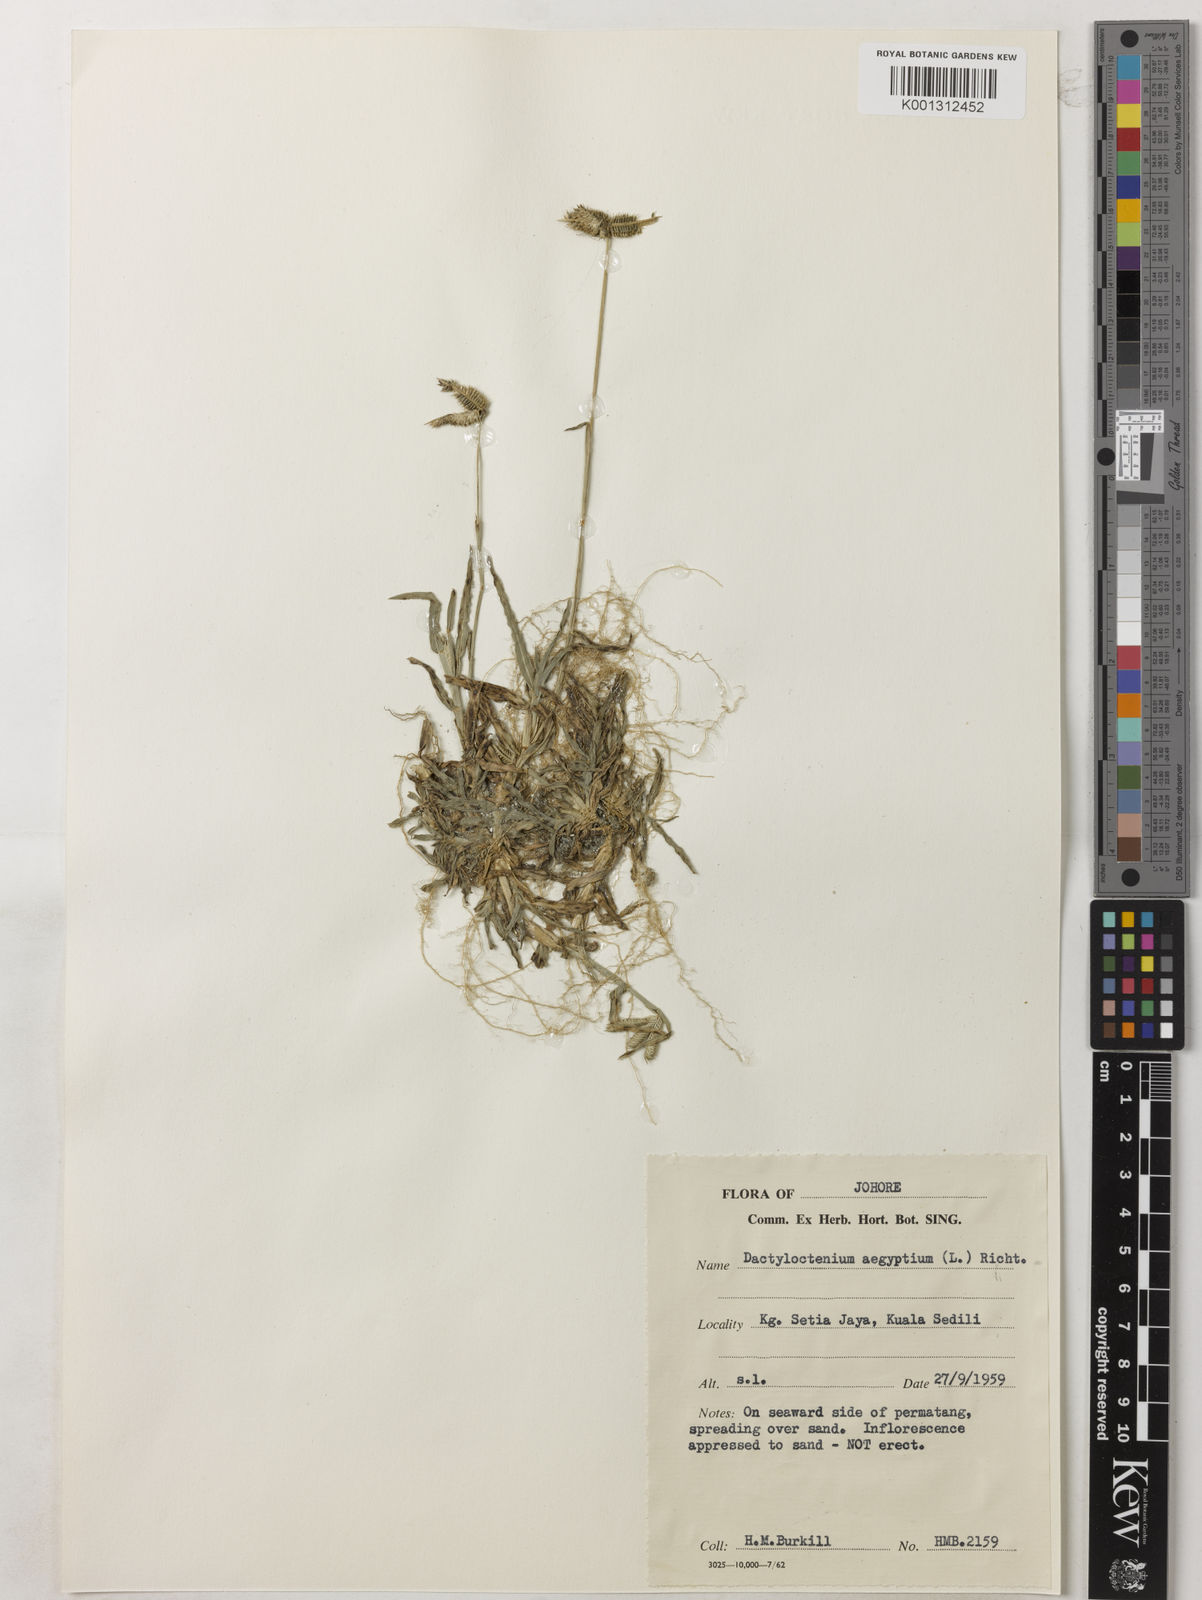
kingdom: Plantae
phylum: Tracheophyta
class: Liliopsida
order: Poales
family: Poaceae
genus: Dactyloctenium
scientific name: Dactyloctenium aegyptium
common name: Egyptian grass
